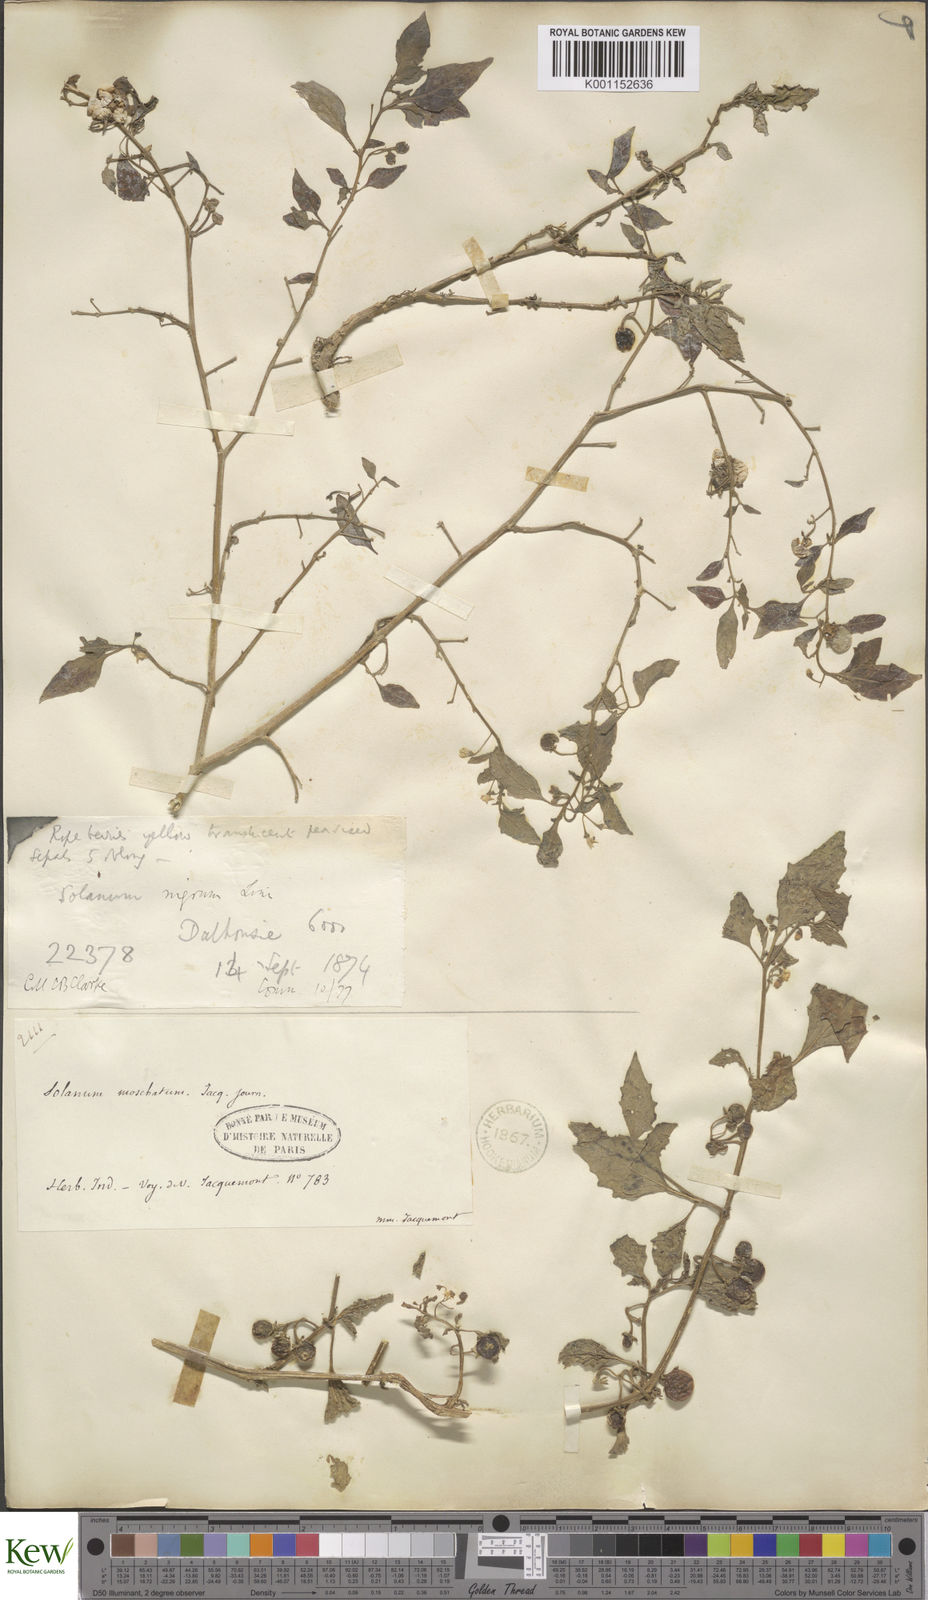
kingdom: Plantae
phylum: Tracheophyta
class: Magnoliopsida
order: Solanales
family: Solanaceae
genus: Solanum
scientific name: Solanum nigrum
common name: Black nightshade
